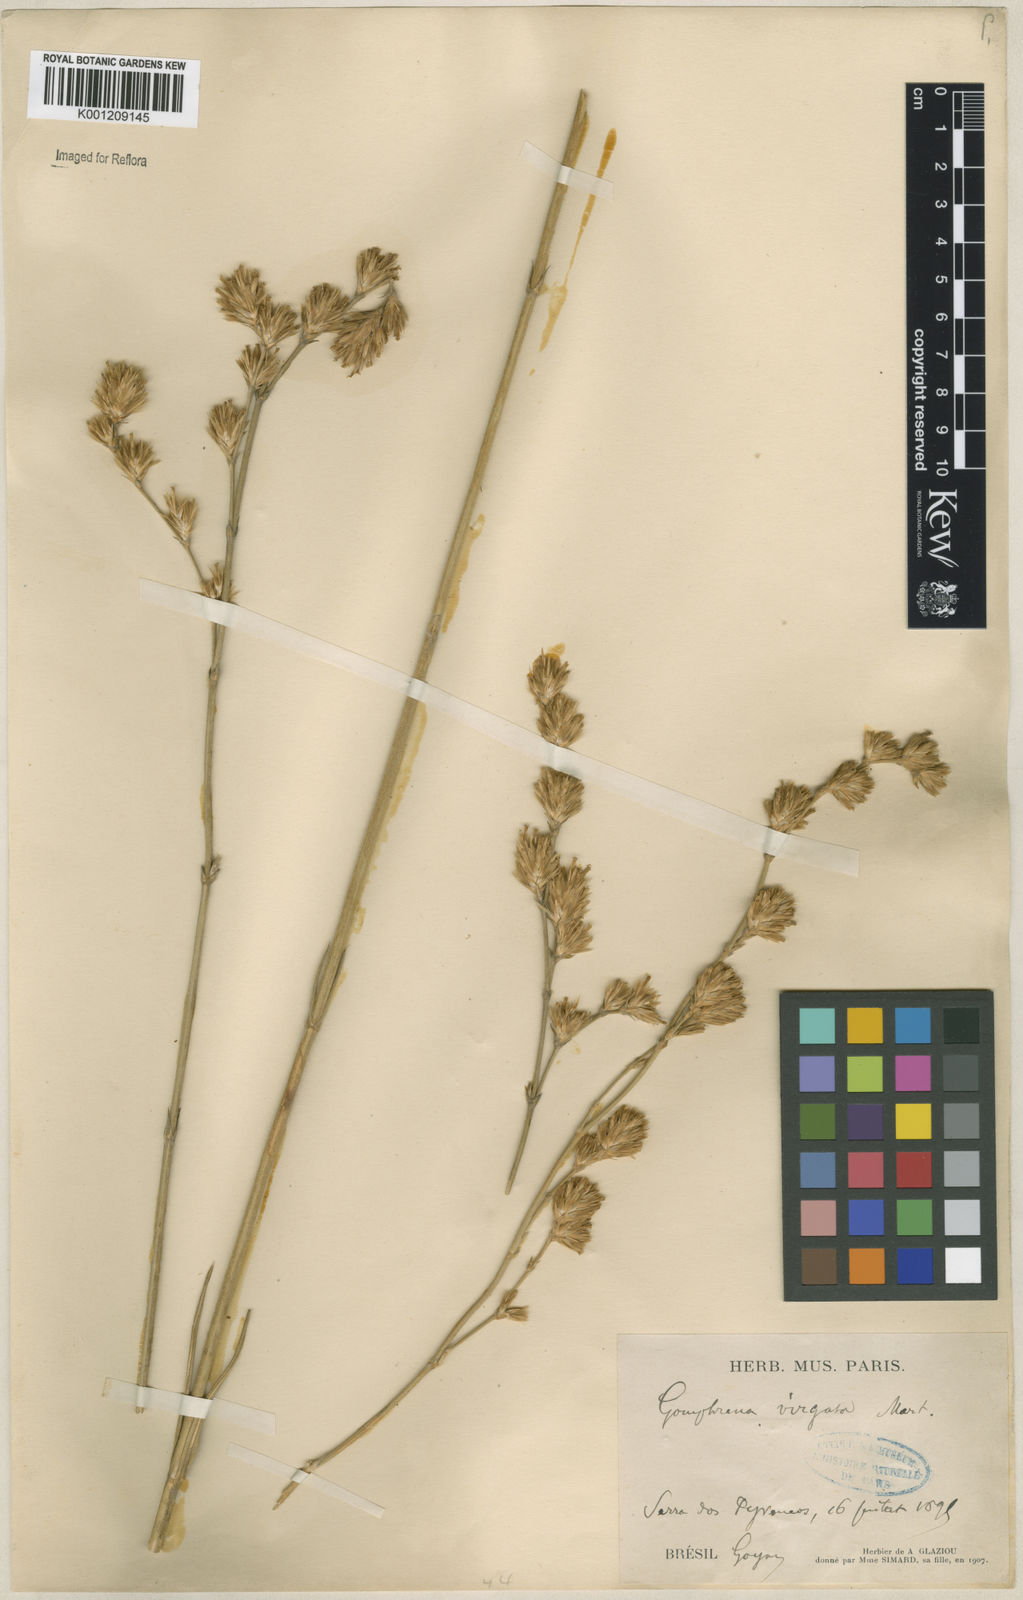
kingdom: Plantae
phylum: Tracheophyta
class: Magnoliopsida
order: Caryophyllales
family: Amaranthaceae
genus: Gomphrena
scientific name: Gomphrena virgata
